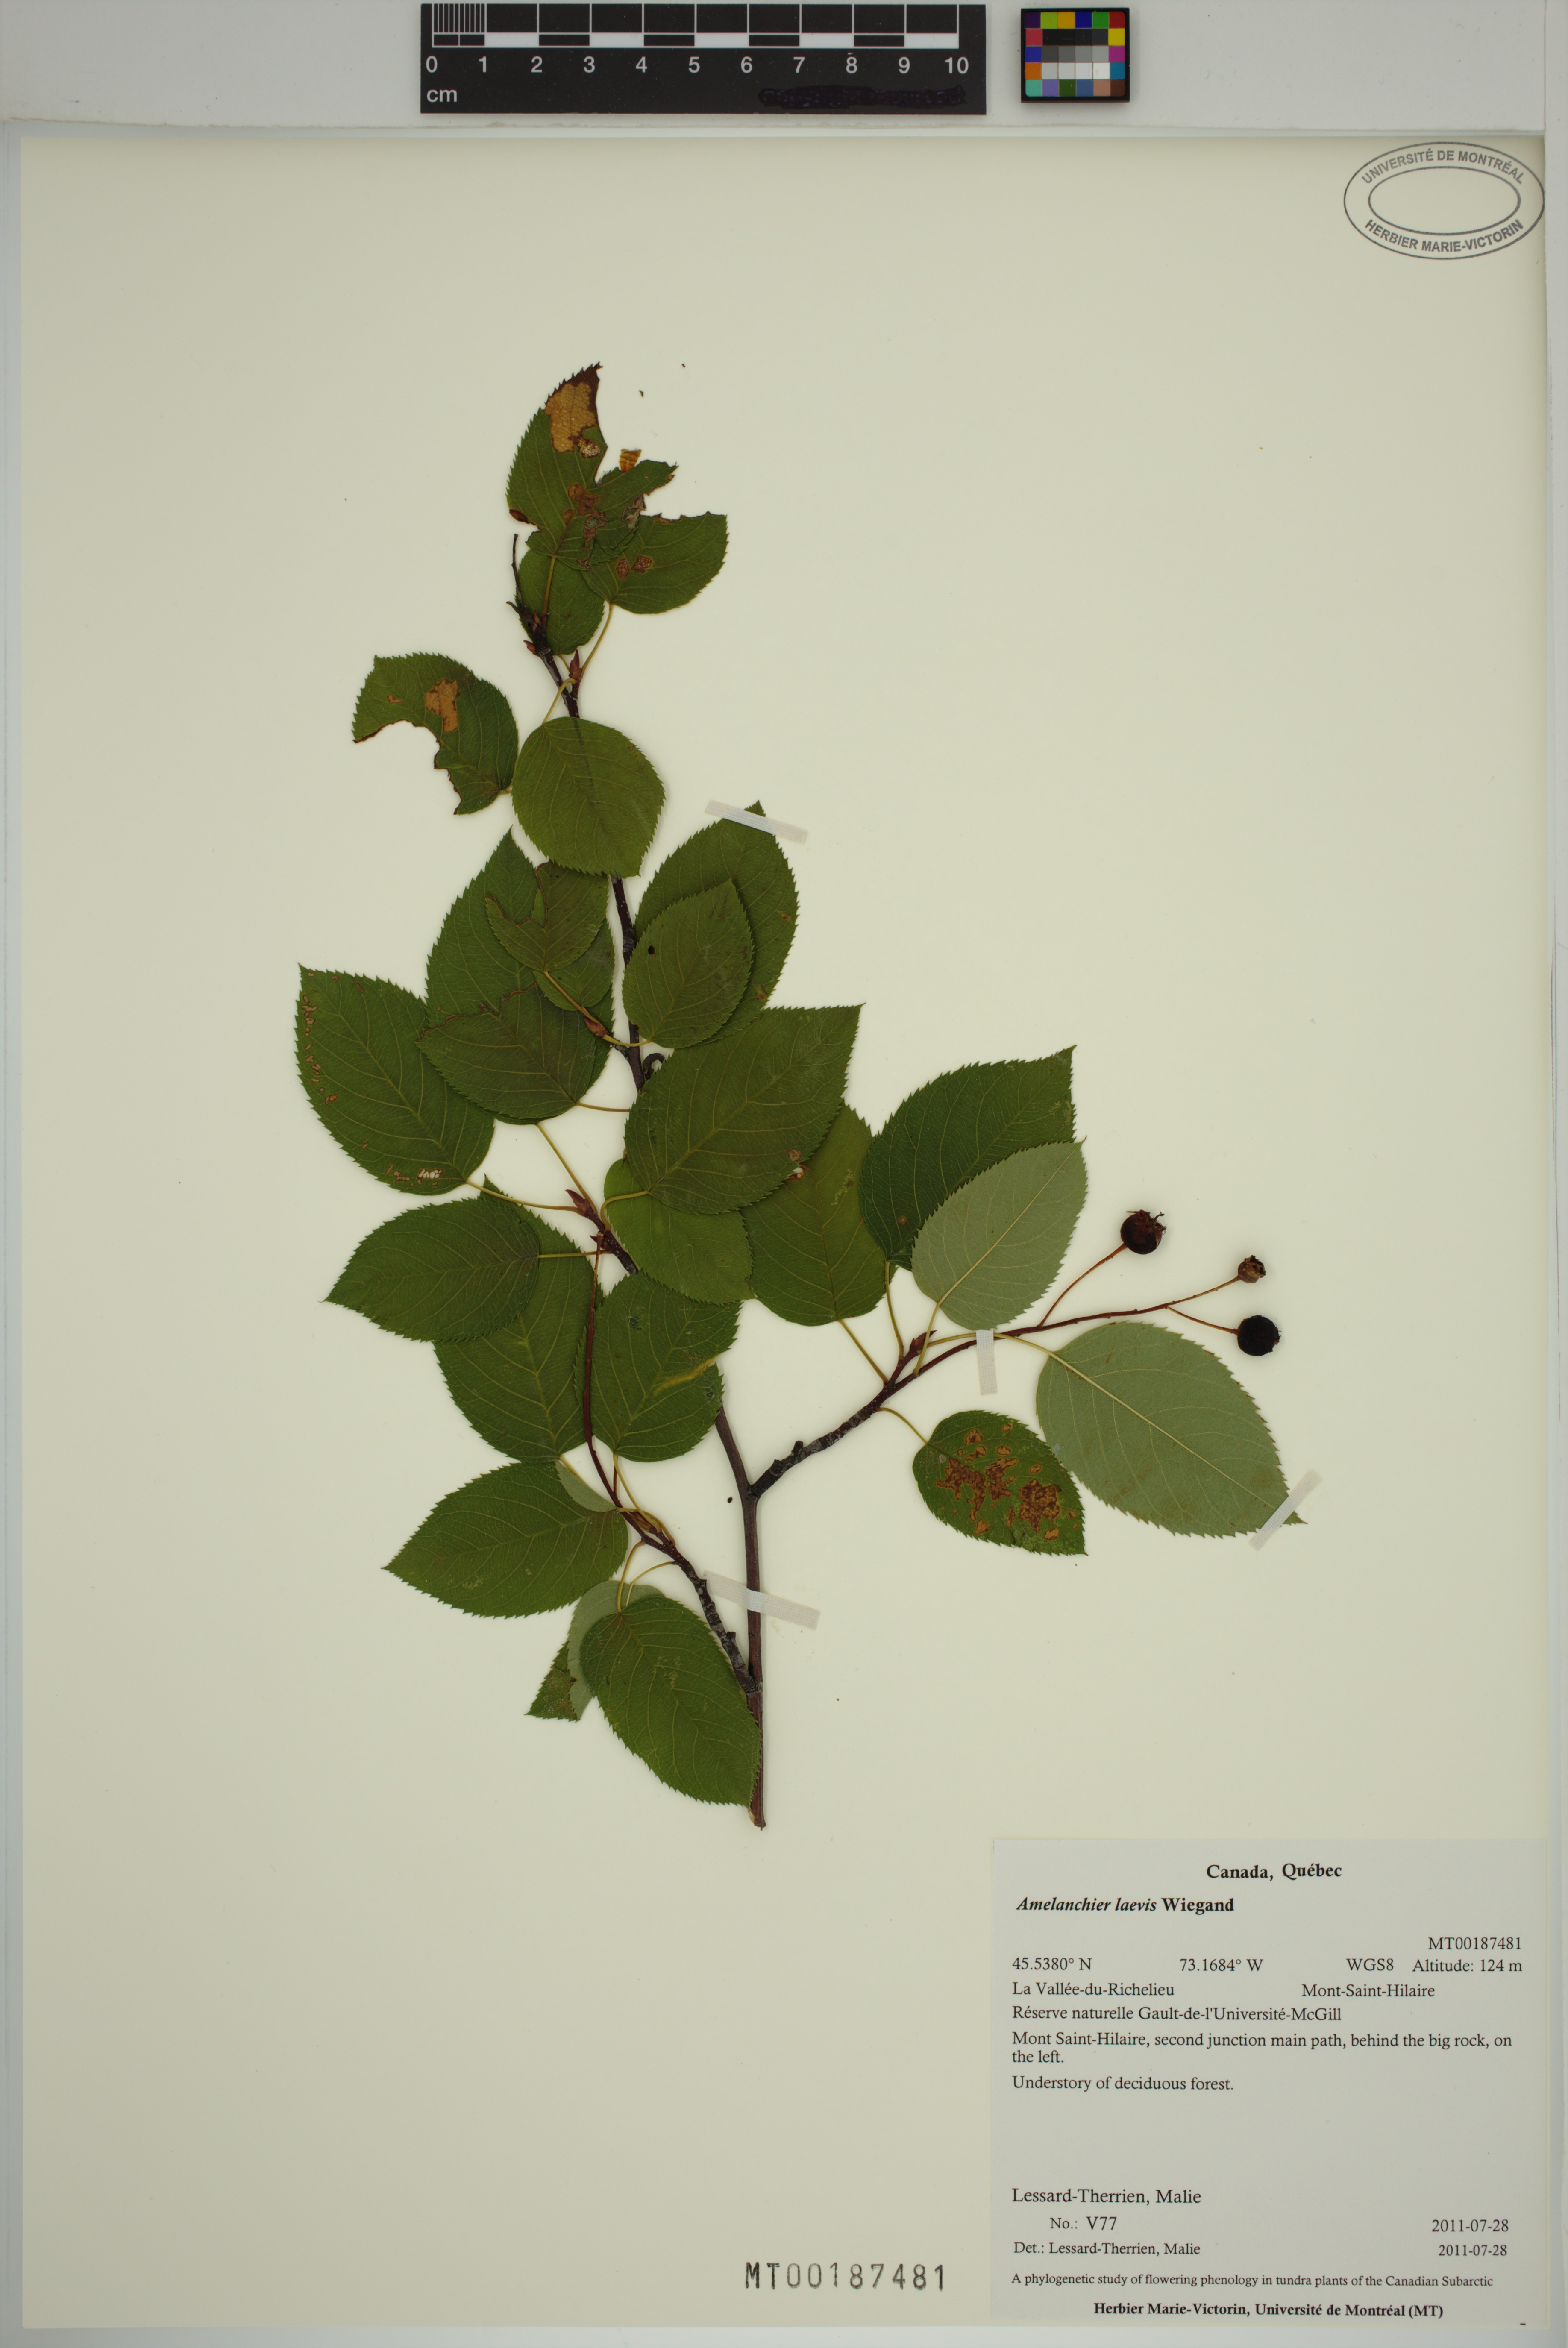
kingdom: Plantae
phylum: Tracheophyta
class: Magnoliopsida
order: Rosales
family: Rosaceae
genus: Amelanchier
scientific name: Amelanchier laevis
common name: Allegheny serviceberry
